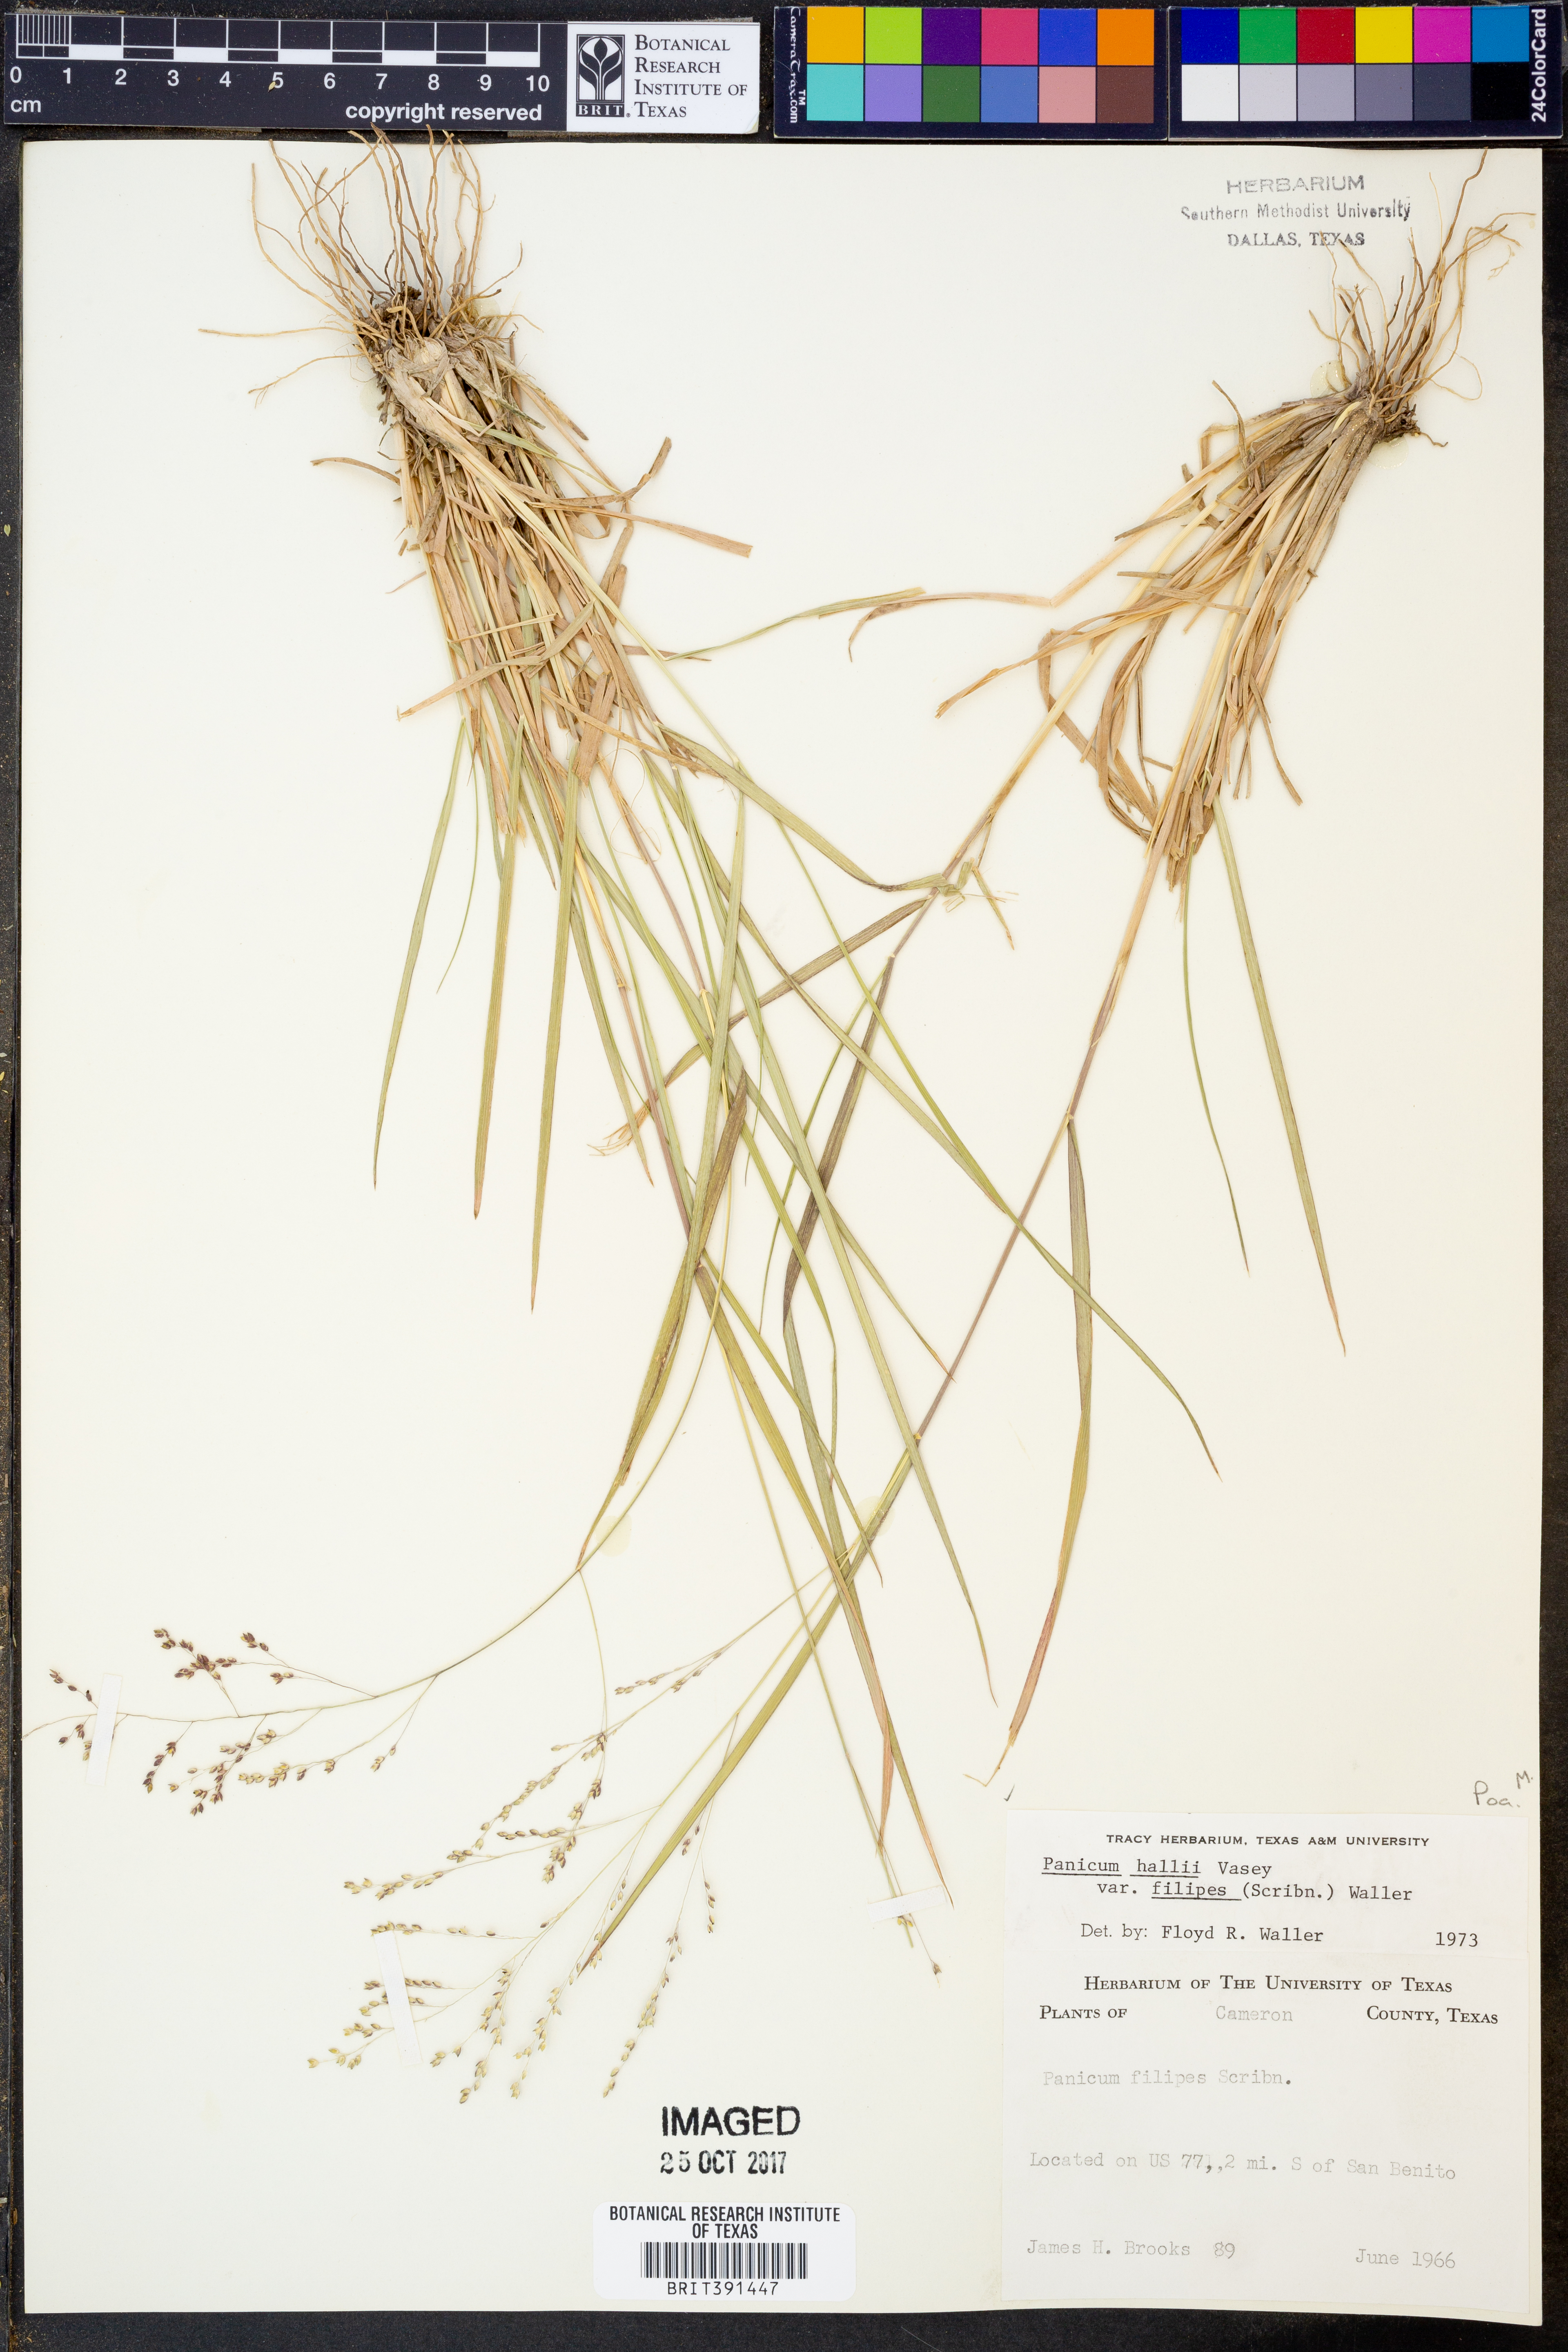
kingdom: Plantae
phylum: Tracheophyta
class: Liliopsida
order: Poales
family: Poaceae
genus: Panicum
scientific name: Panicum hallii
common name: Hall's witchgrass
